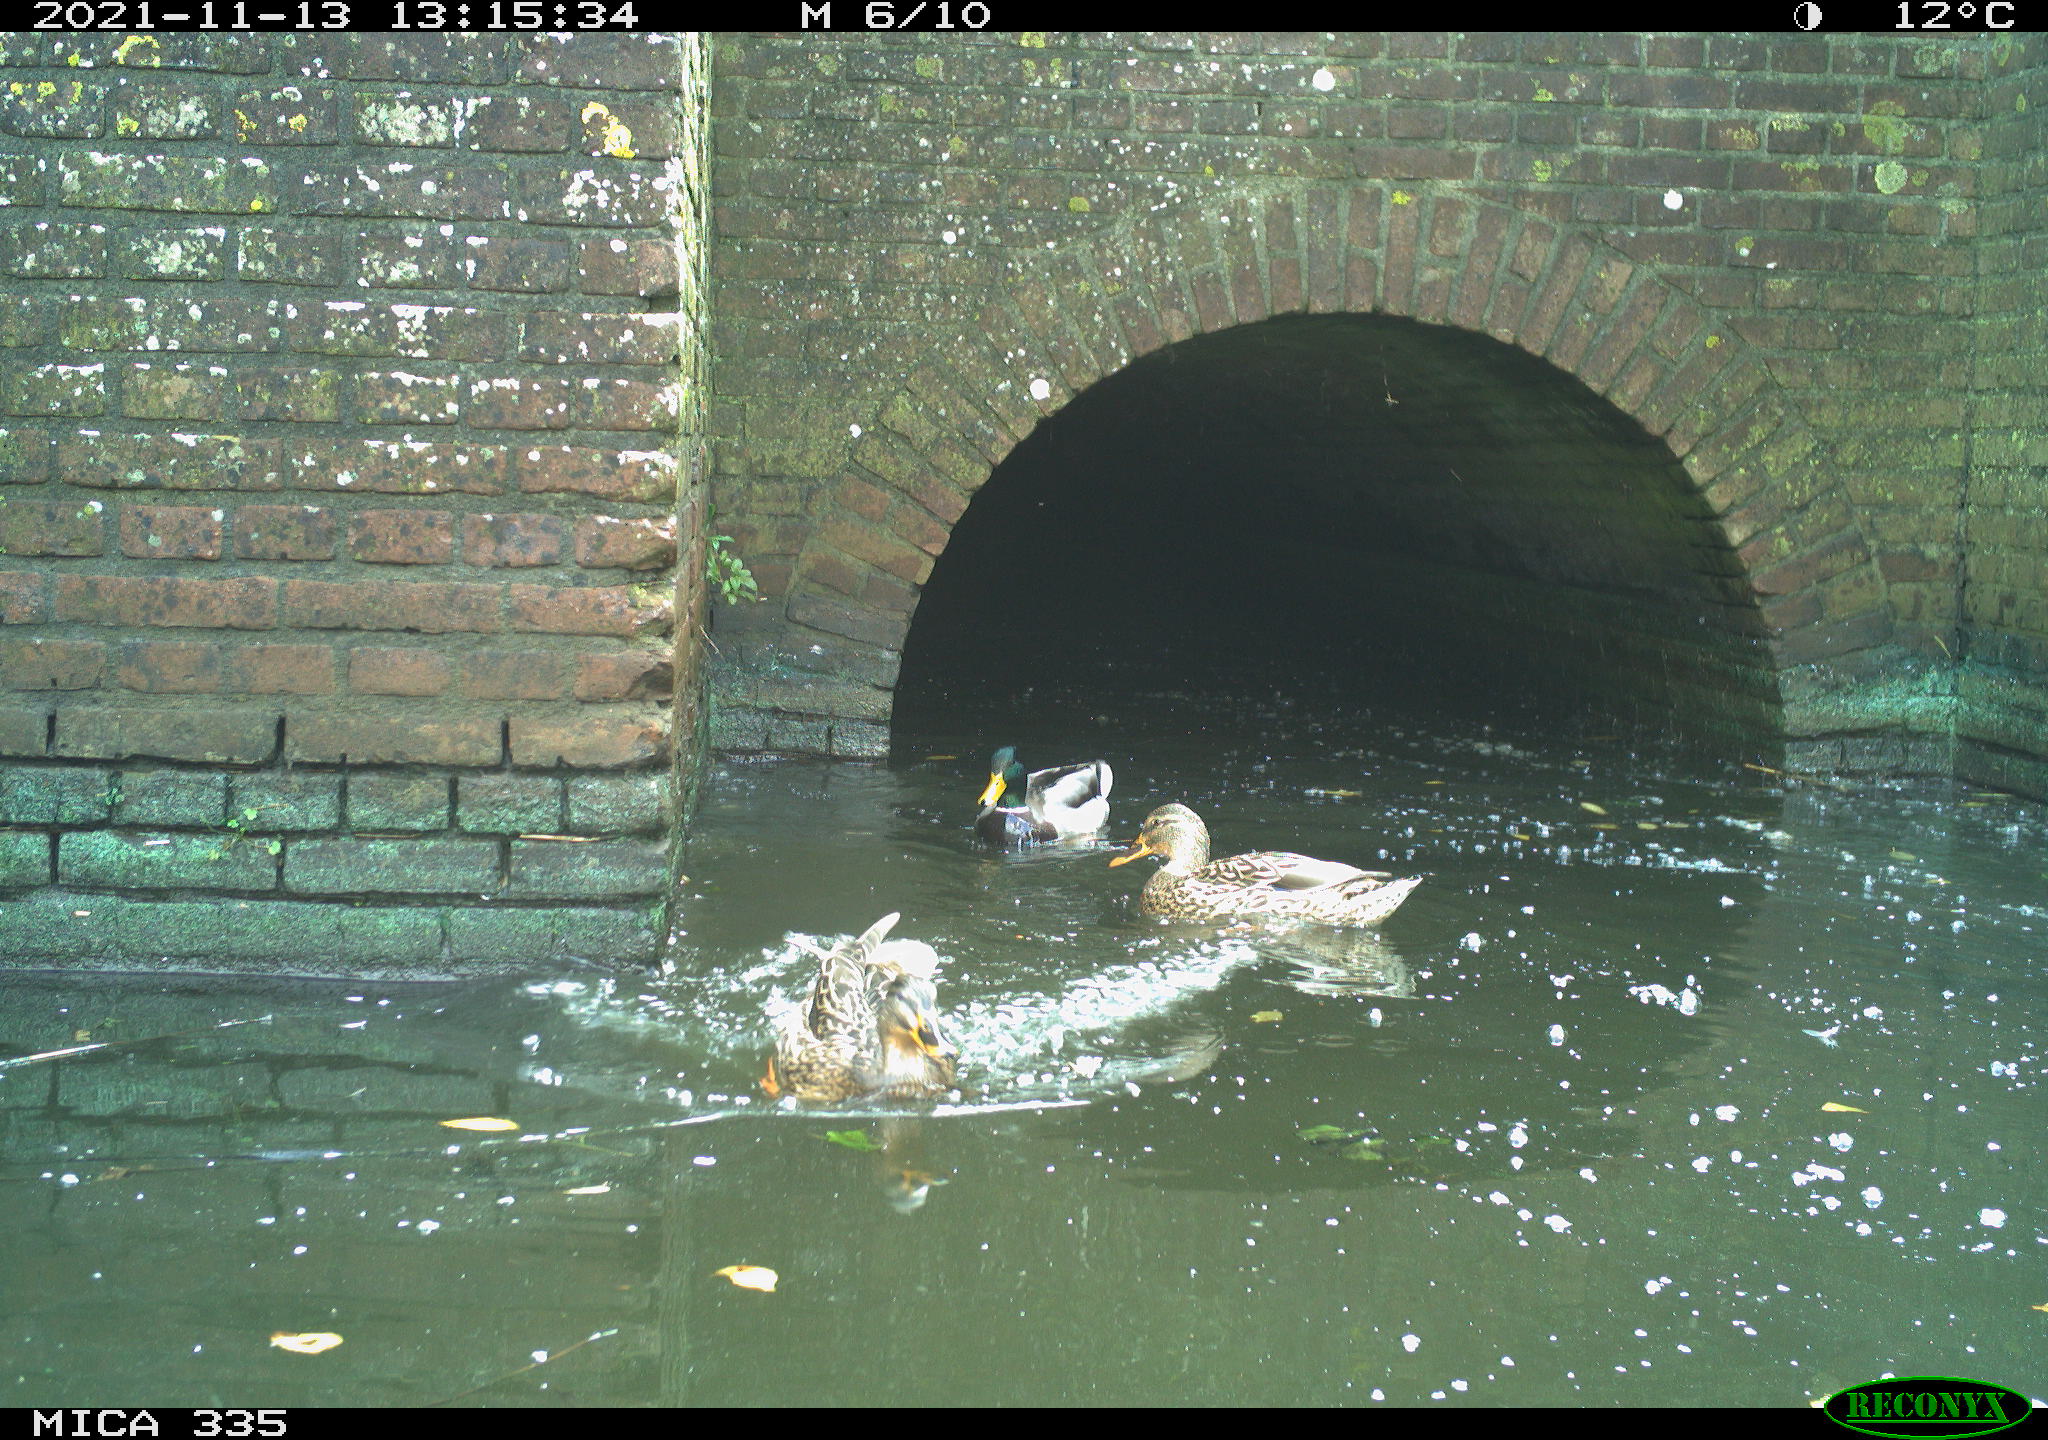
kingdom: Animalia
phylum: Chordata
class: Aves
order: Anseriformes
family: Anatidae
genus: Anas
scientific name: Anas platyrhynchos
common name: Mallard
